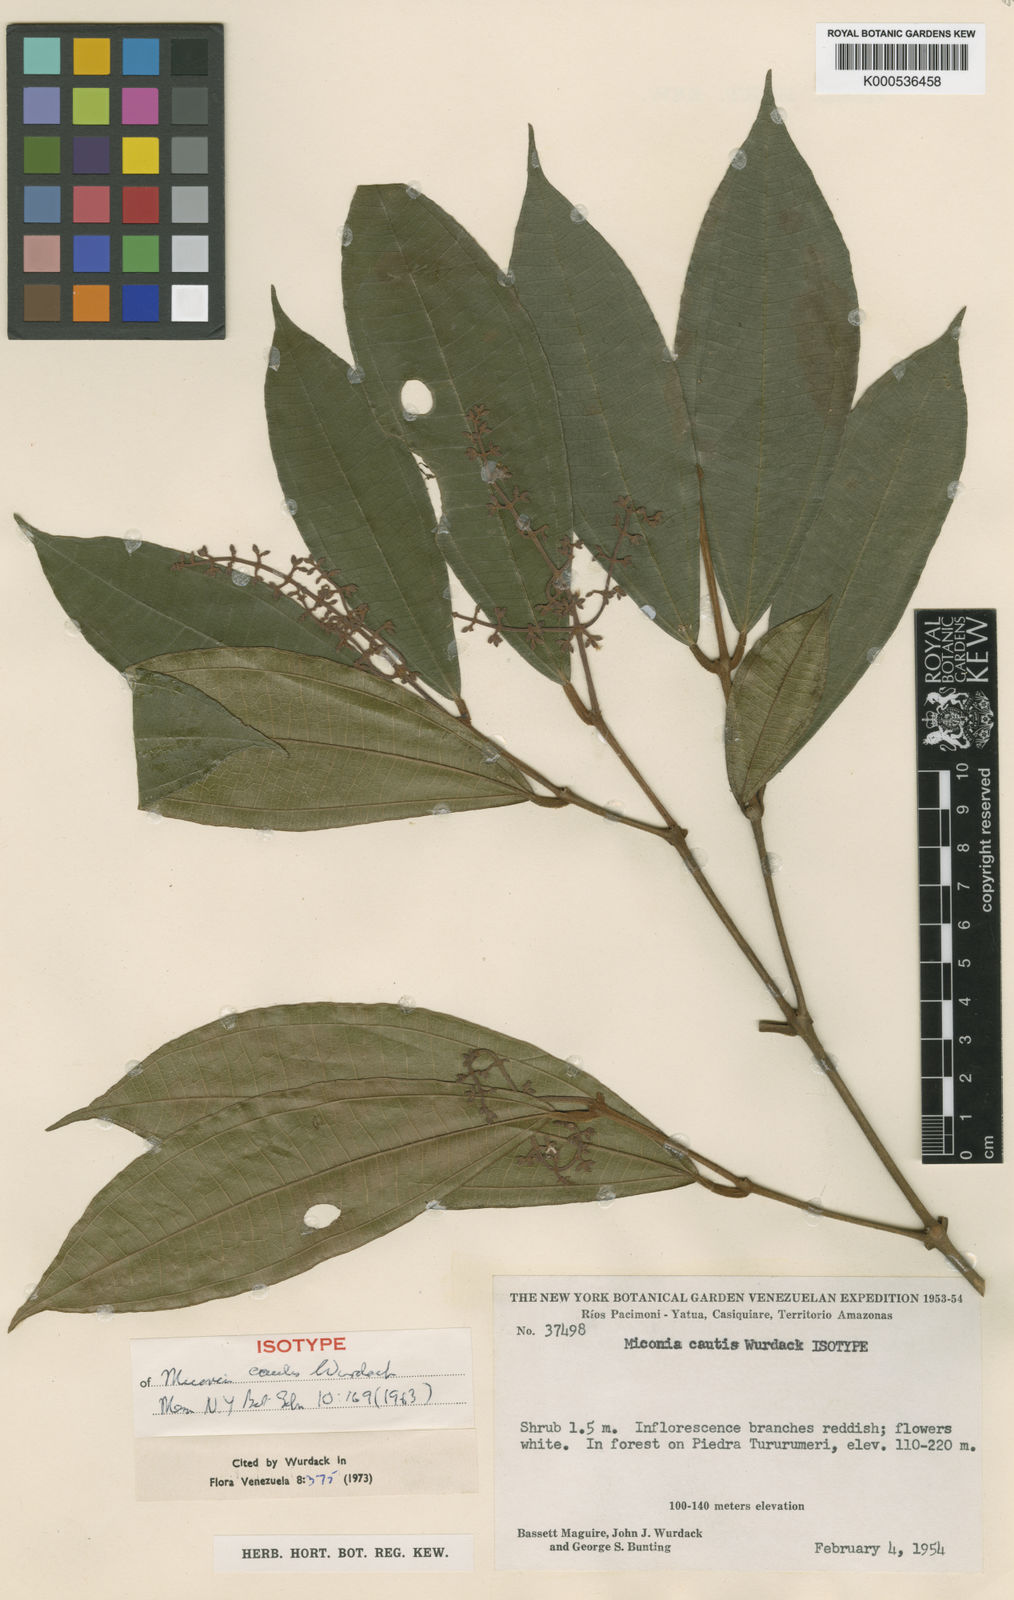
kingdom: Plantae
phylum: Tracheophyta
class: Magnoliopsida
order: Myrtales
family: Melastomataceae
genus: Miconia
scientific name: Miconia cautis
